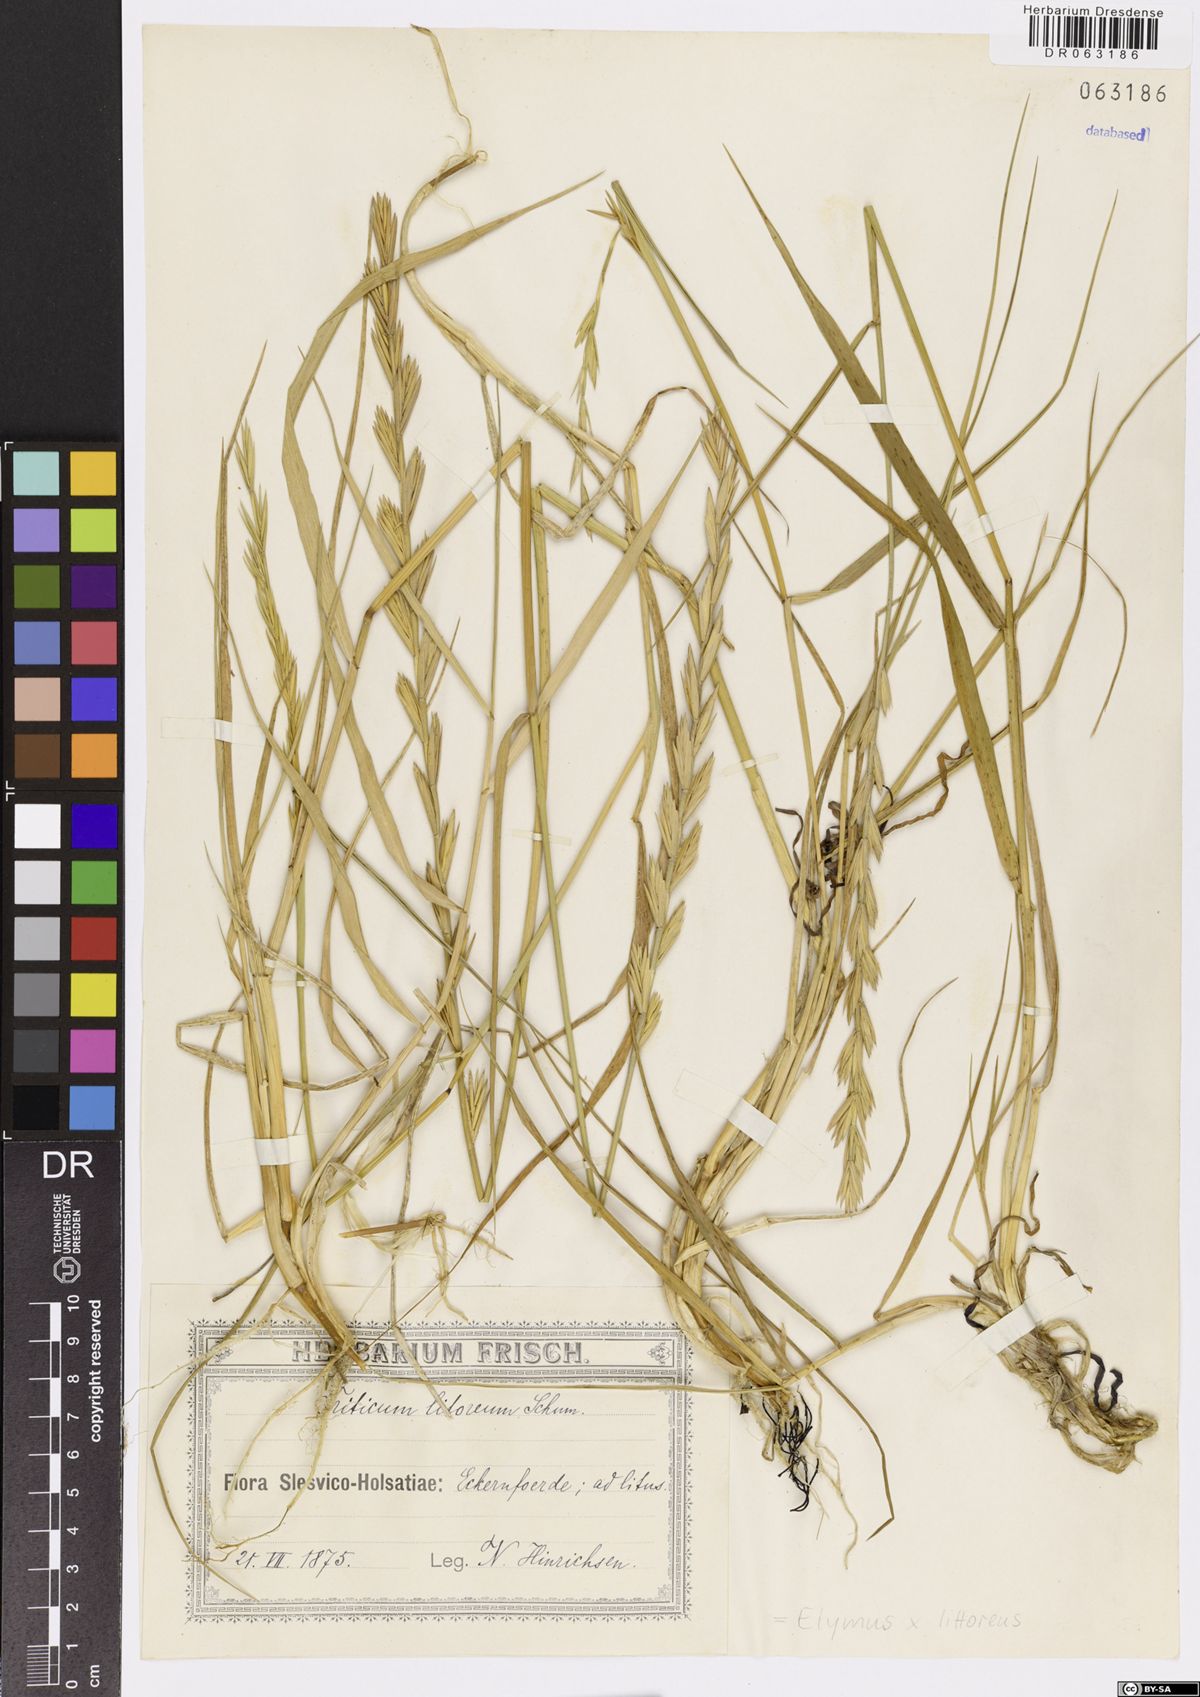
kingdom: Plantae
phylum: Tracheophyta
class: Liliopsida
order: Poales
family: Poaceae
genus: Elymus
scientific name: Elymus repens
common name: Quackgrass
